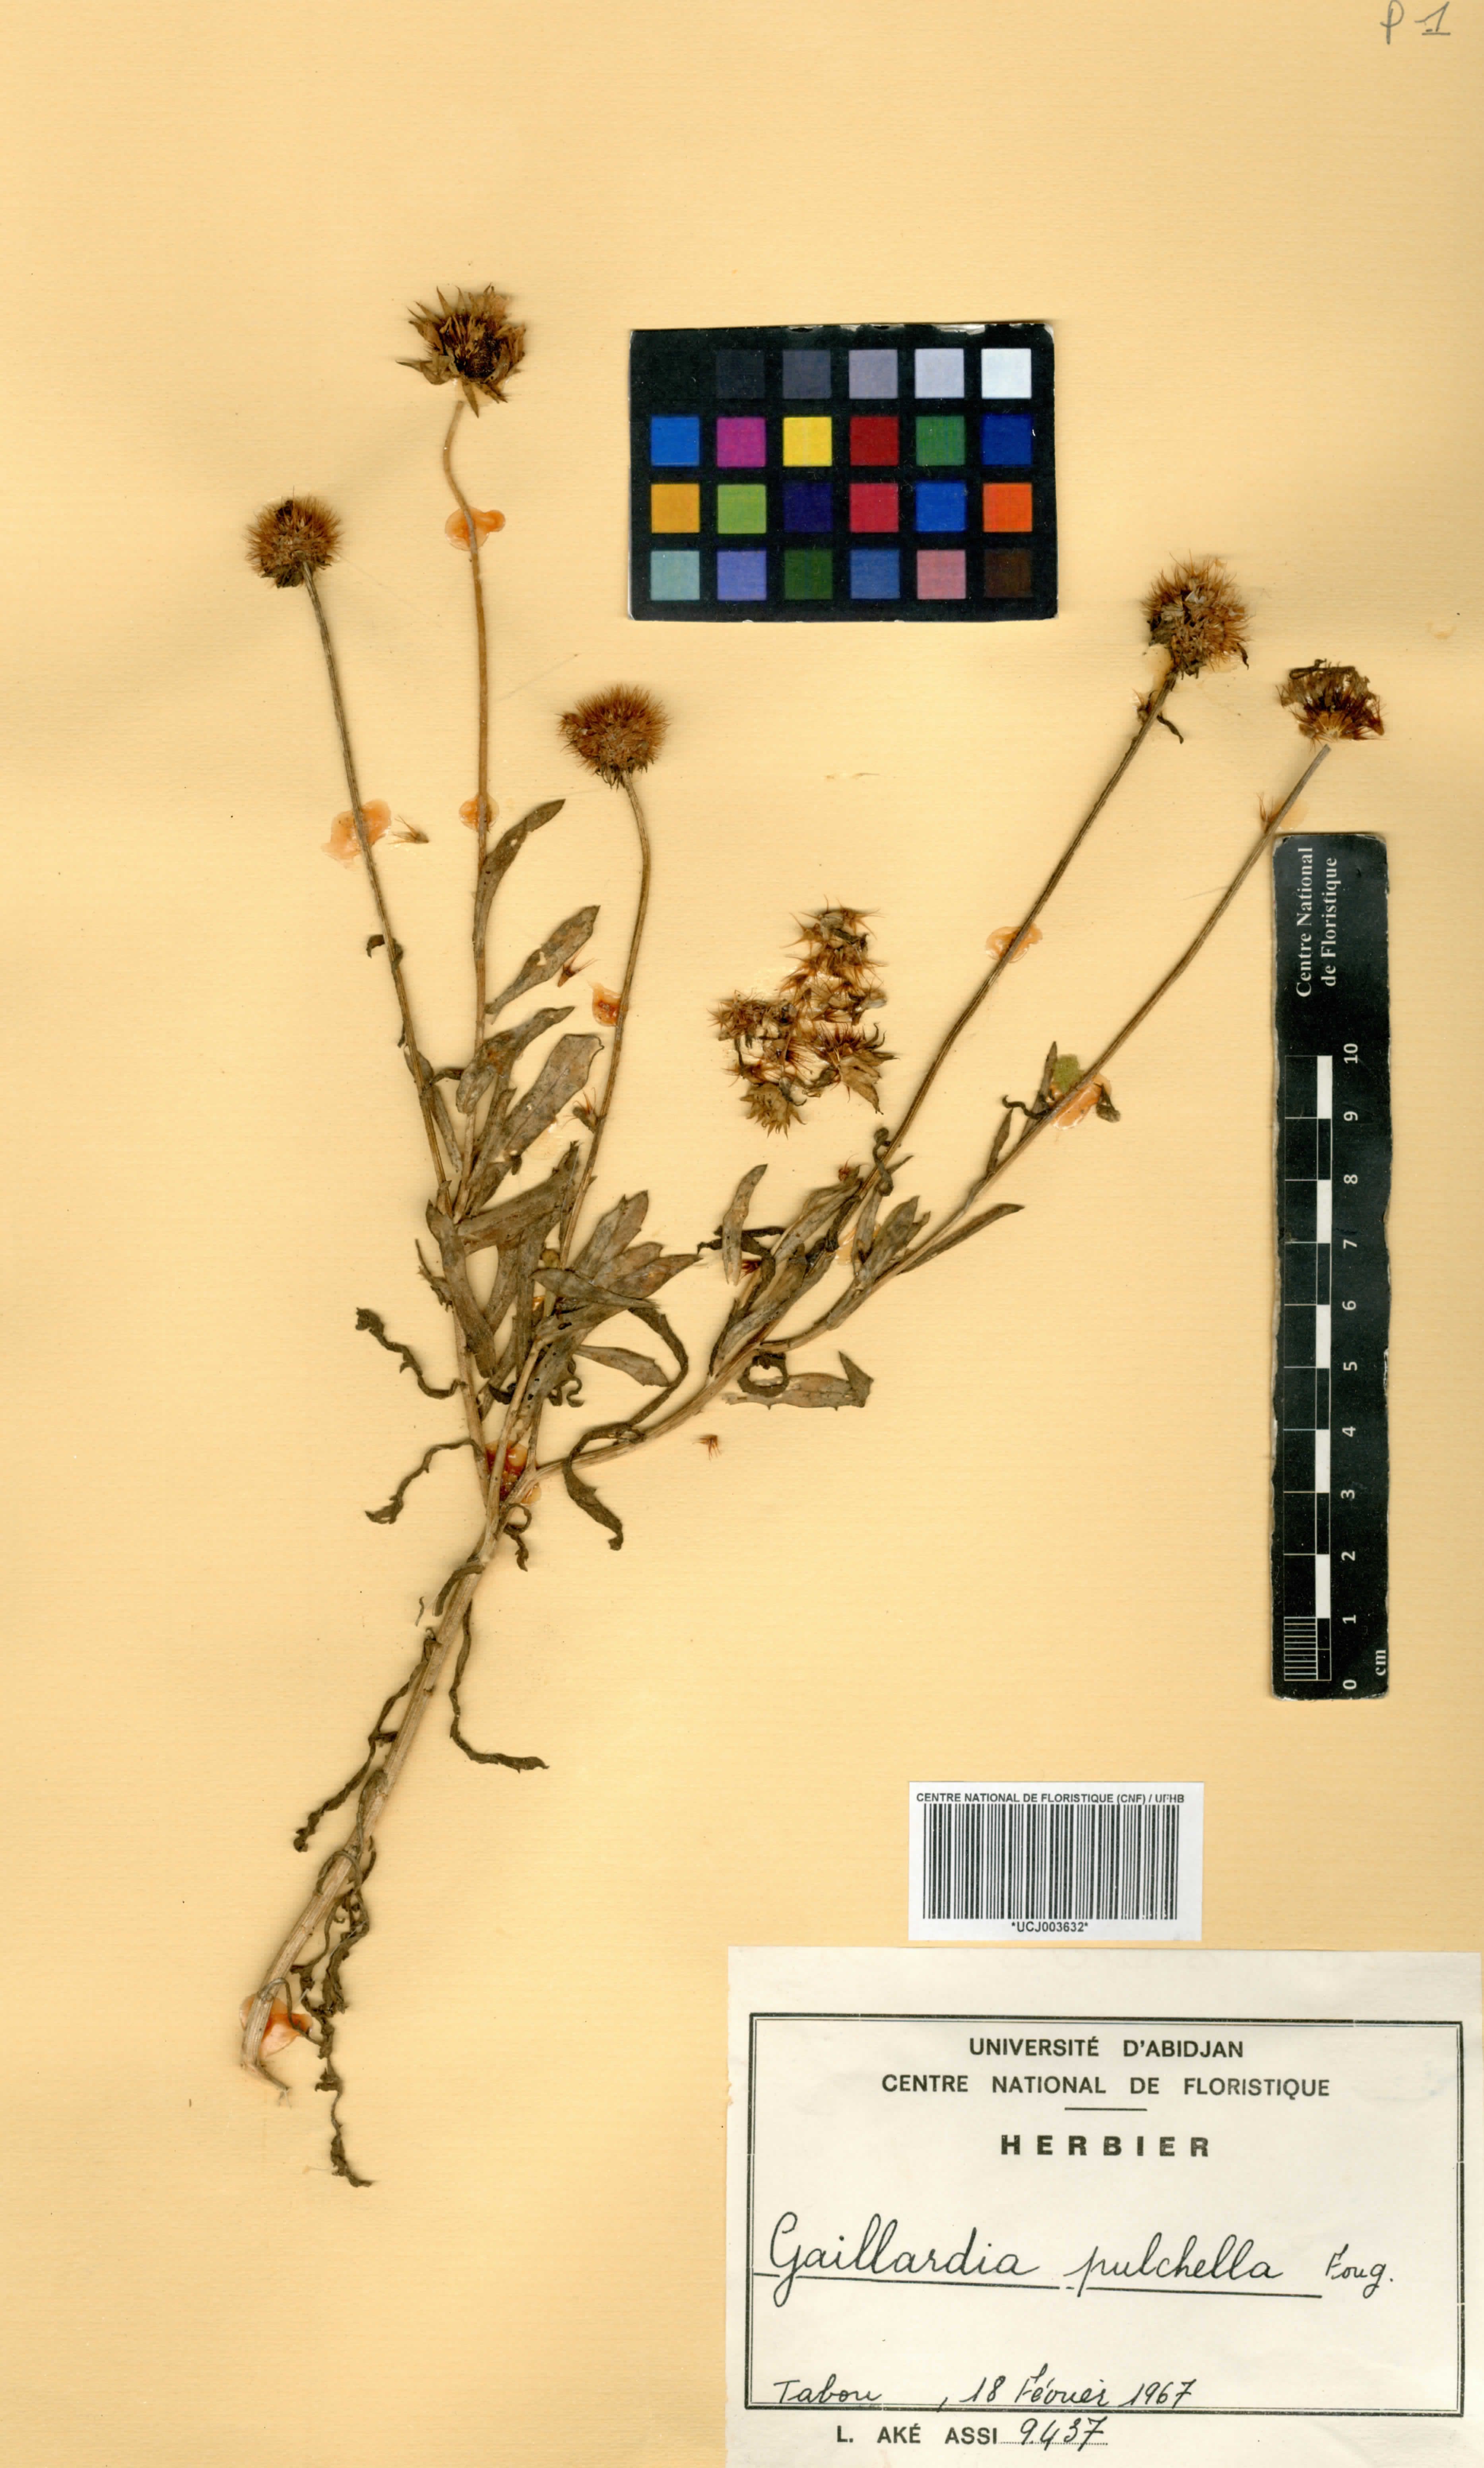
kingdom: Plantae
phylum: Tracheophyta
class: Magnoliopsida
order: Asterales
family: Asteraceae
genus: Gaillardia
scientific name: Gaillardia pulchella
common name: Firewheel
